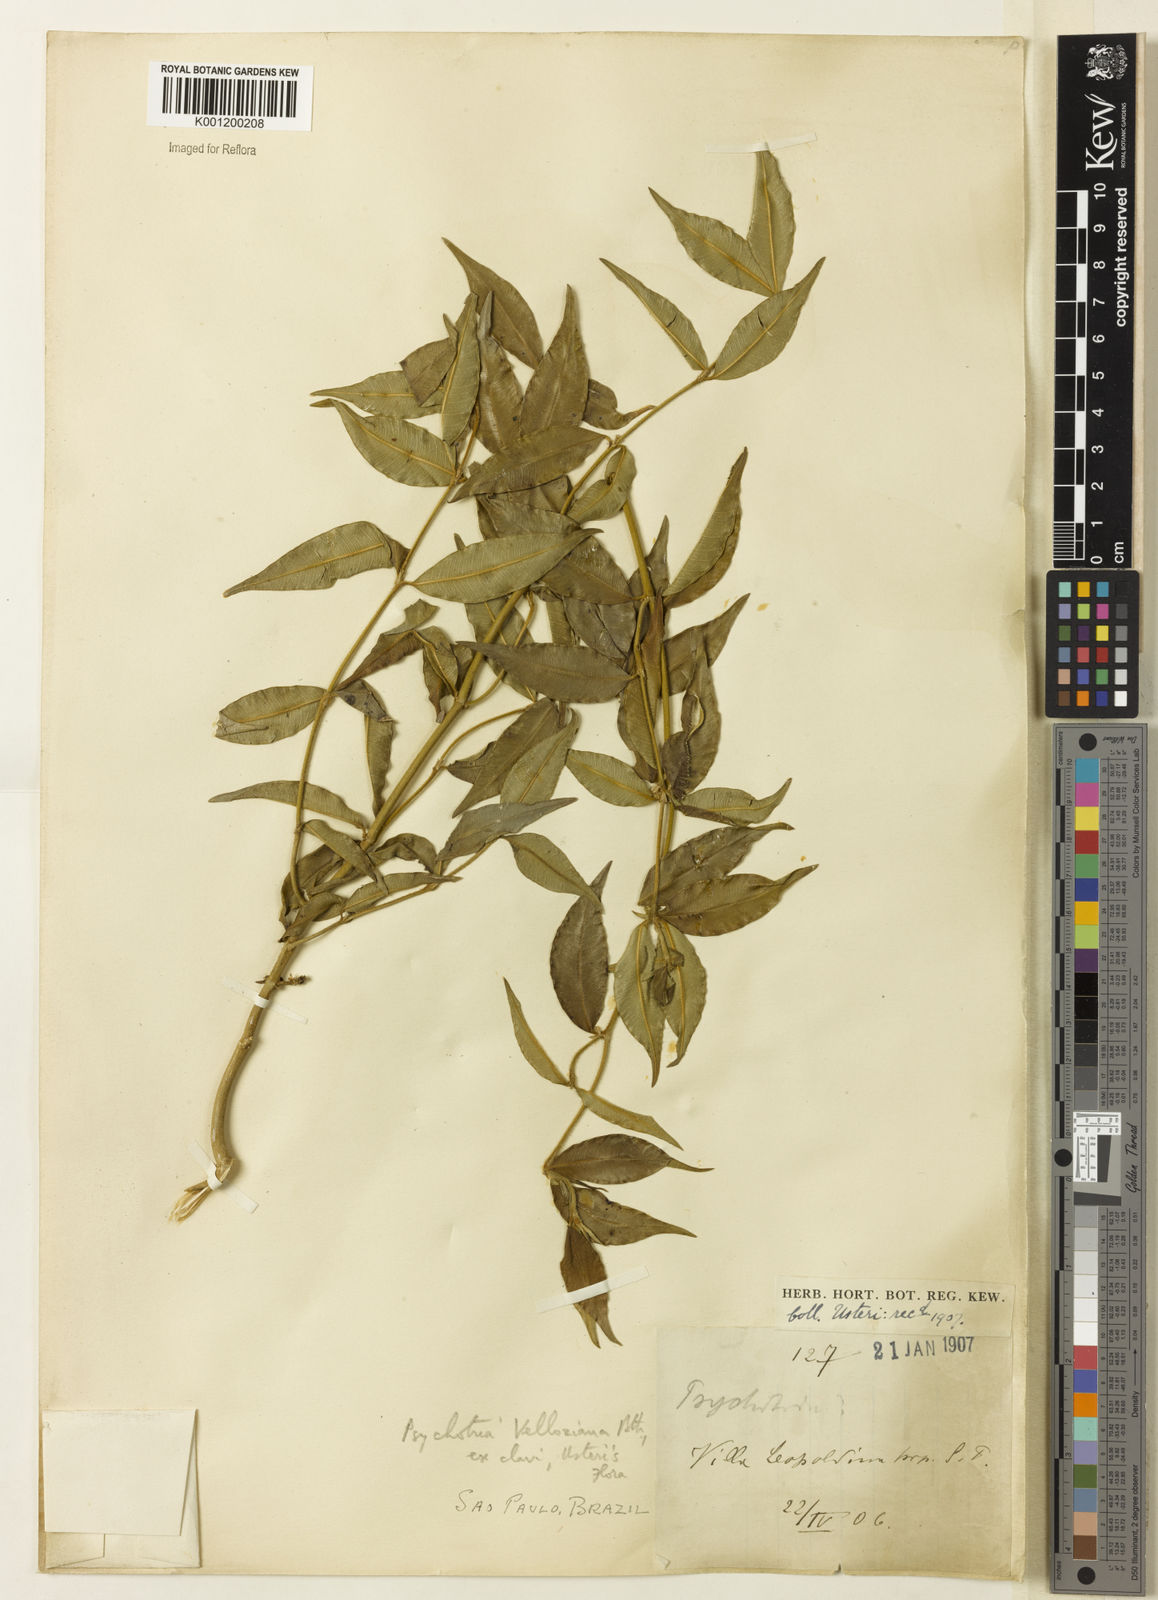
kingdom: Plantae
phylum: Tracheophyta
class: Magnoliopsida
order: Gentianales
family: Rubiaceae
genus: Rudgea
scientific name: Rudgea sessilis
